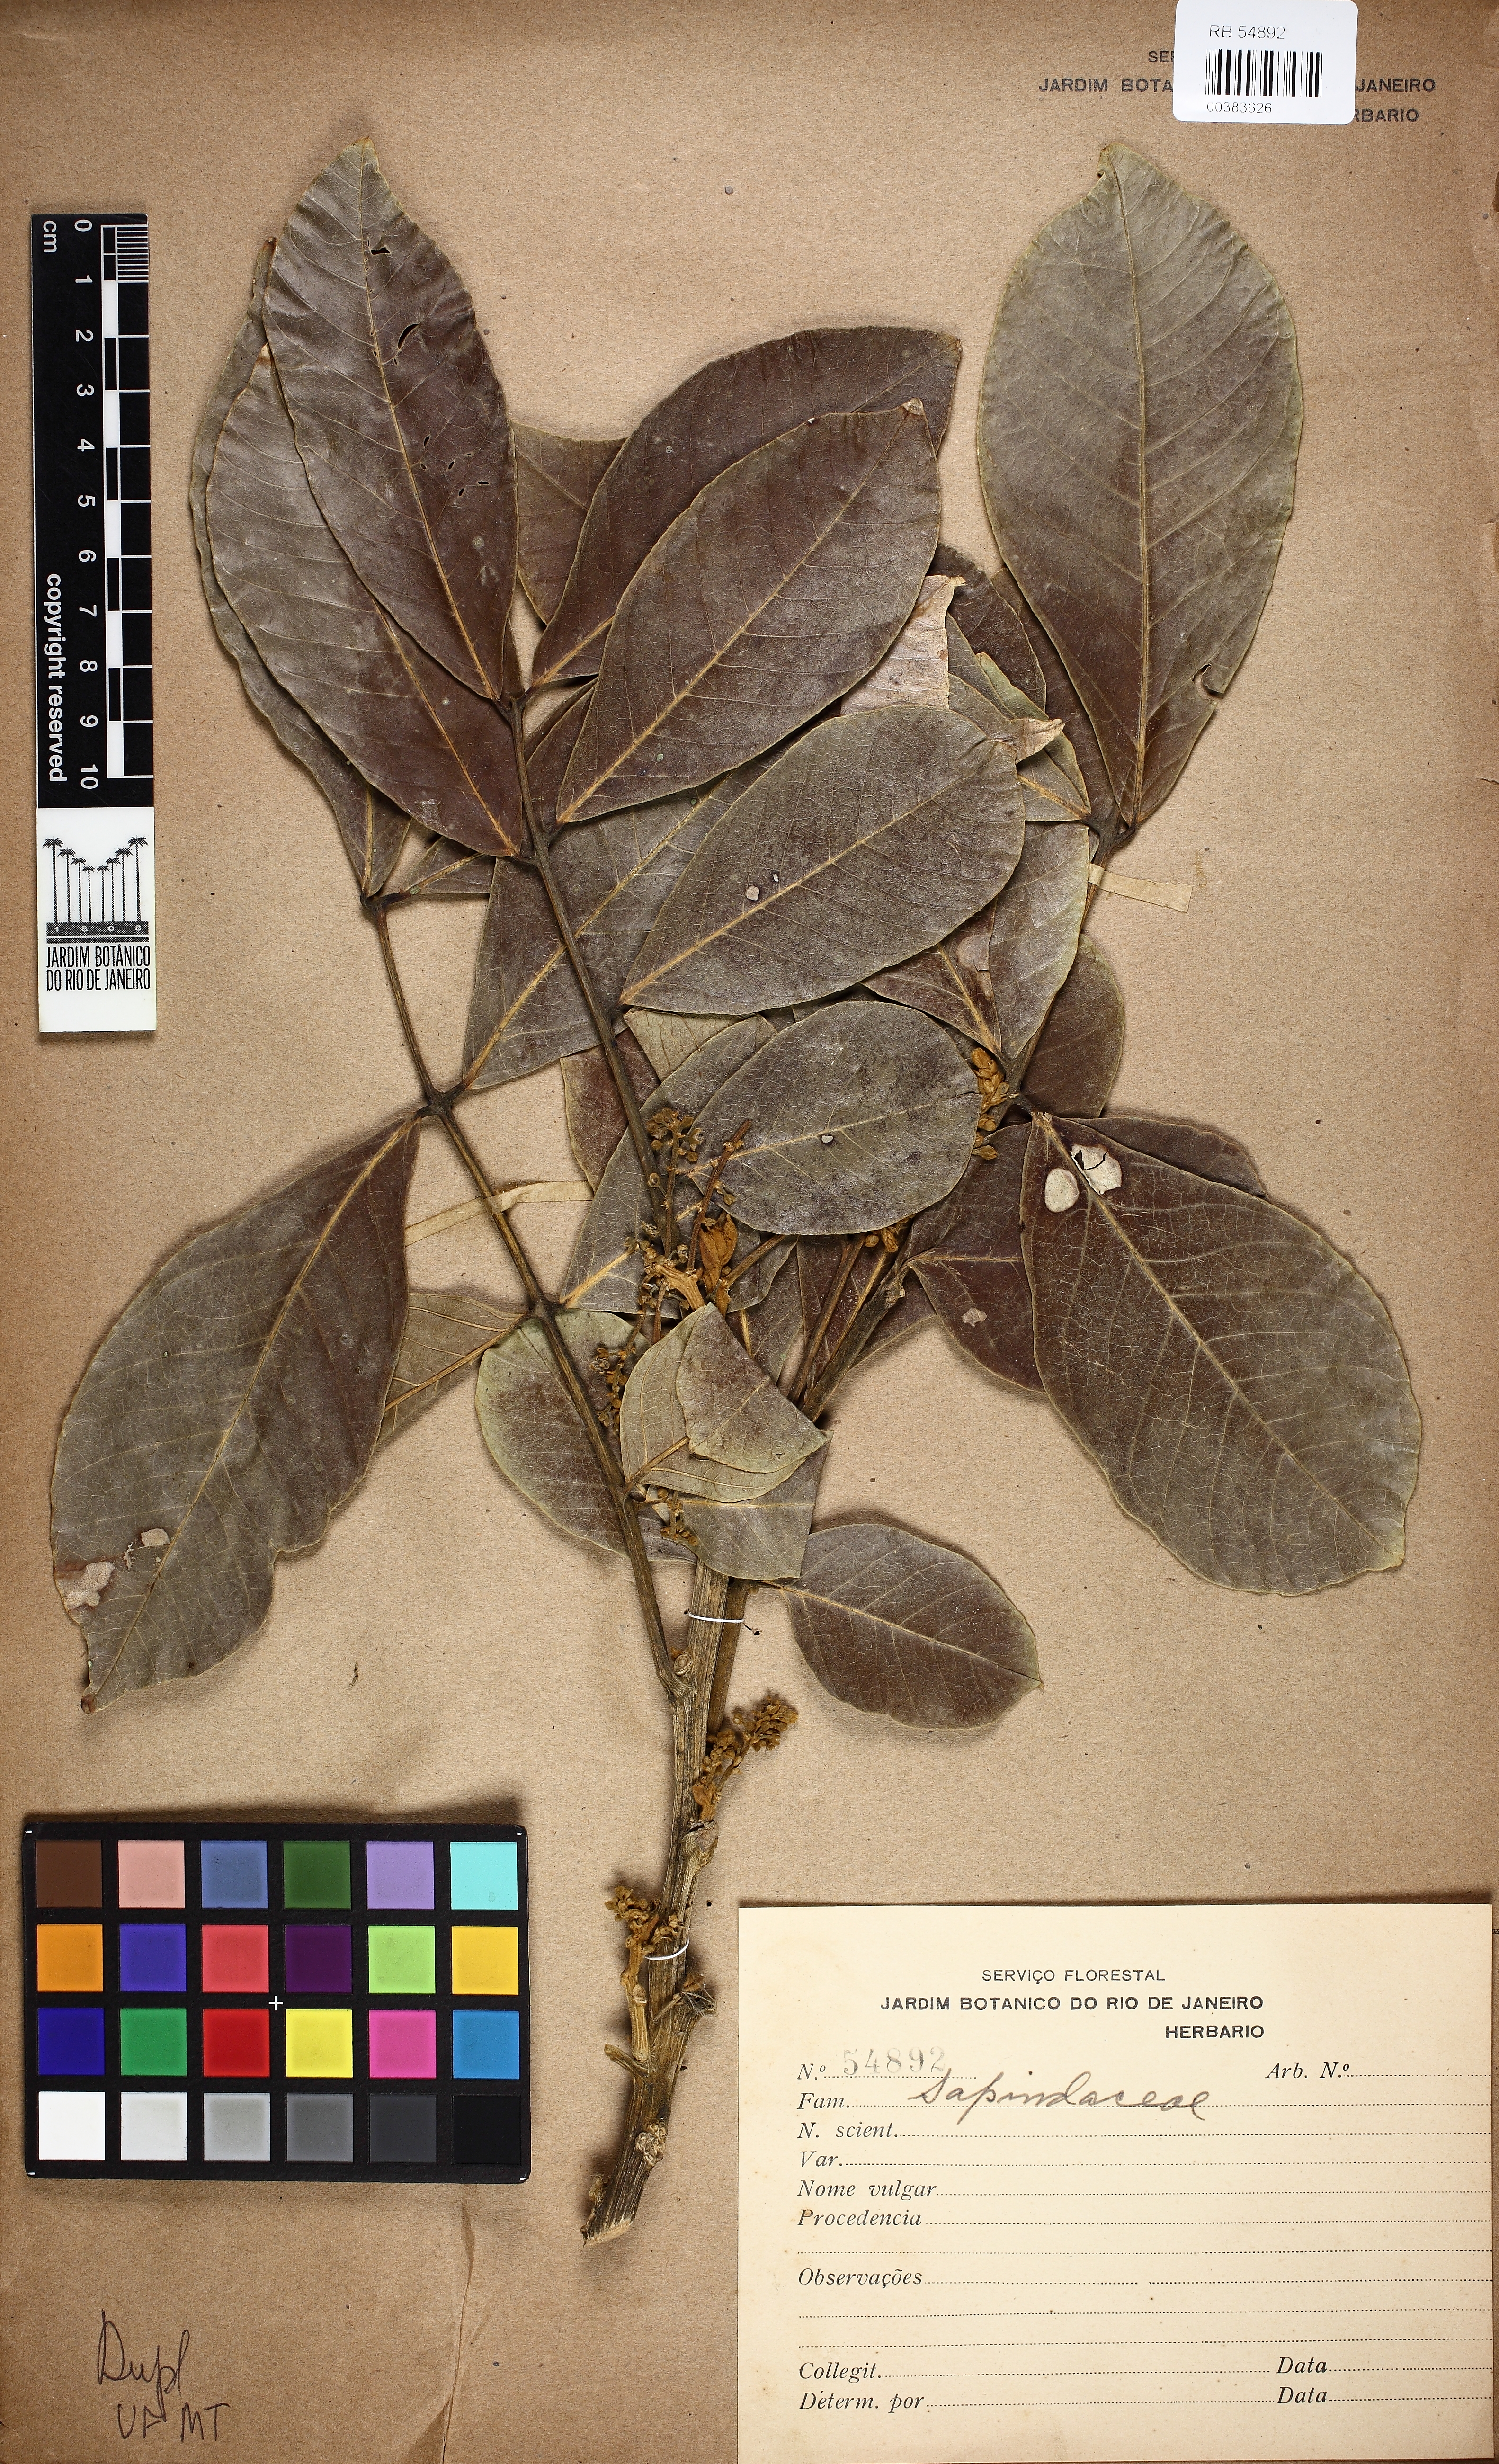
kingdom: Plantae
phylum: Tracheophyta
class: Magnoliopsida
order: Sapindales
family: Sapindaceae
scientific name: Sapindaceae
